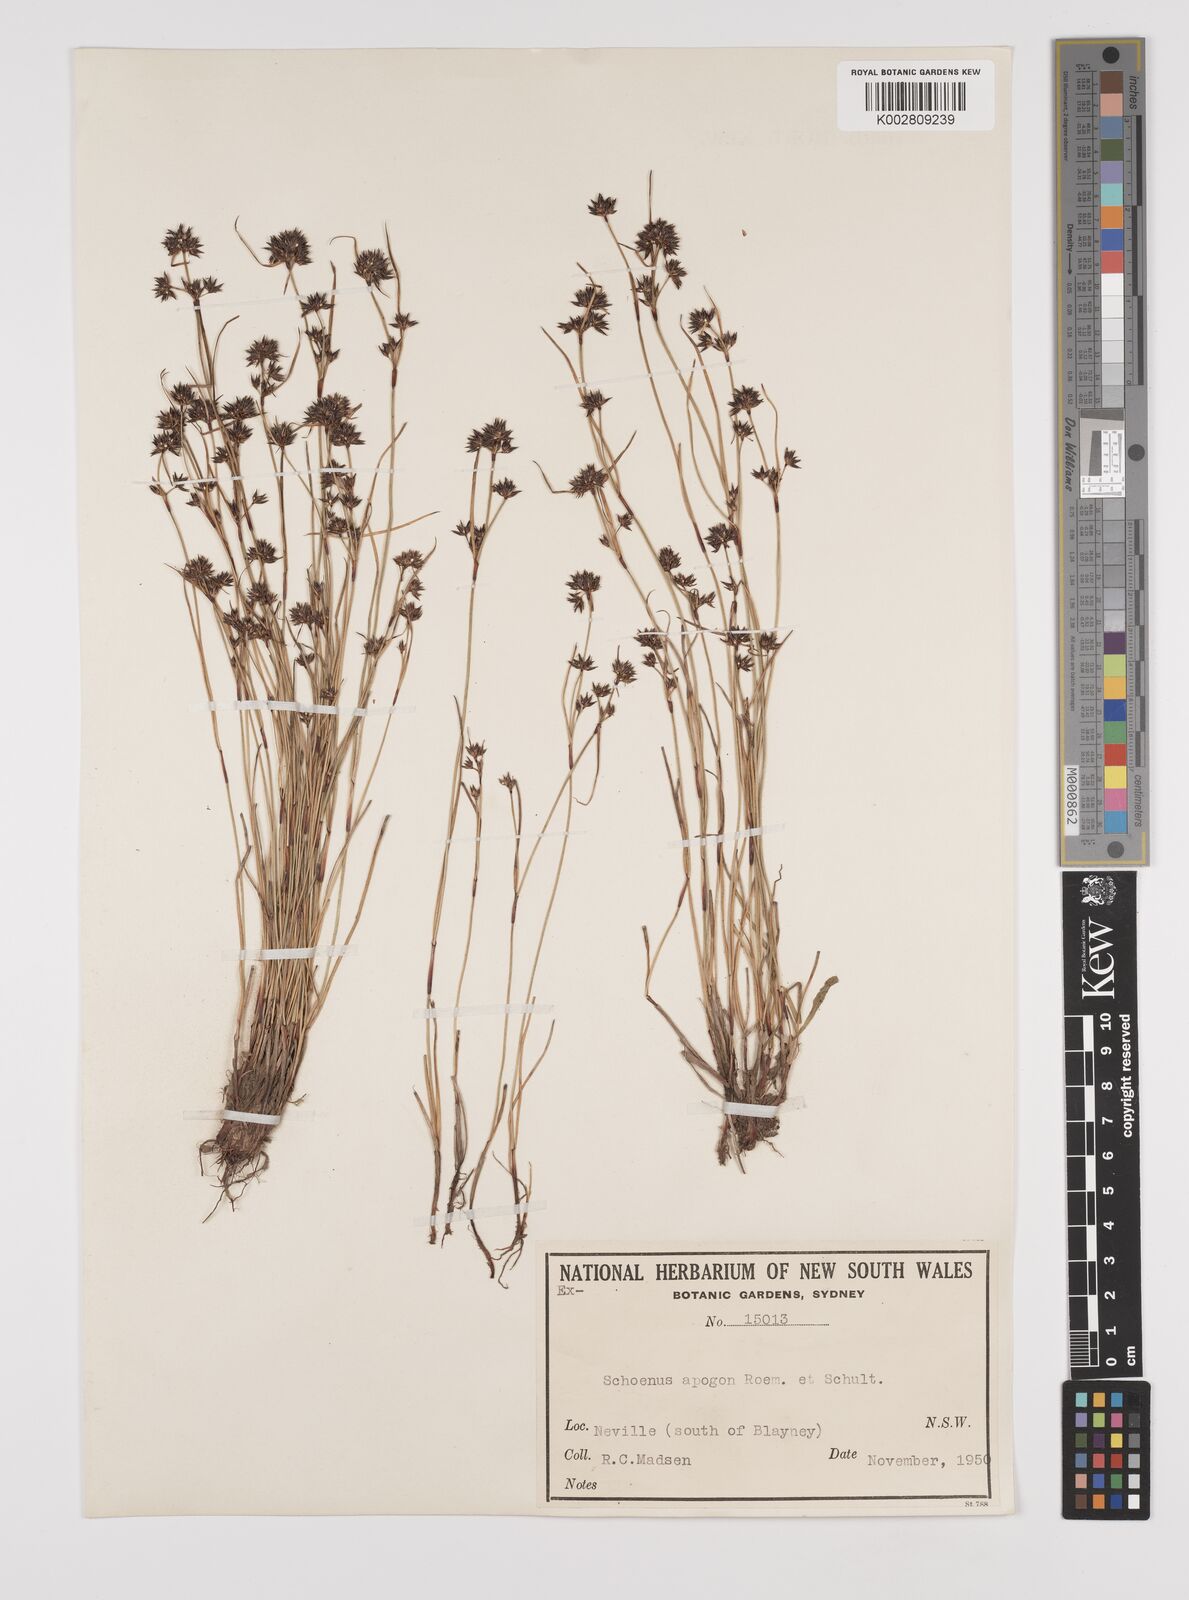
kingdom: Plantae
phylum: Tracheophyta
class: Liliopsida
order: Poales
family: Cyperaceae
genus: Schoenus
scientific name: Schoenus apogon
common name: Smooth bogrush
